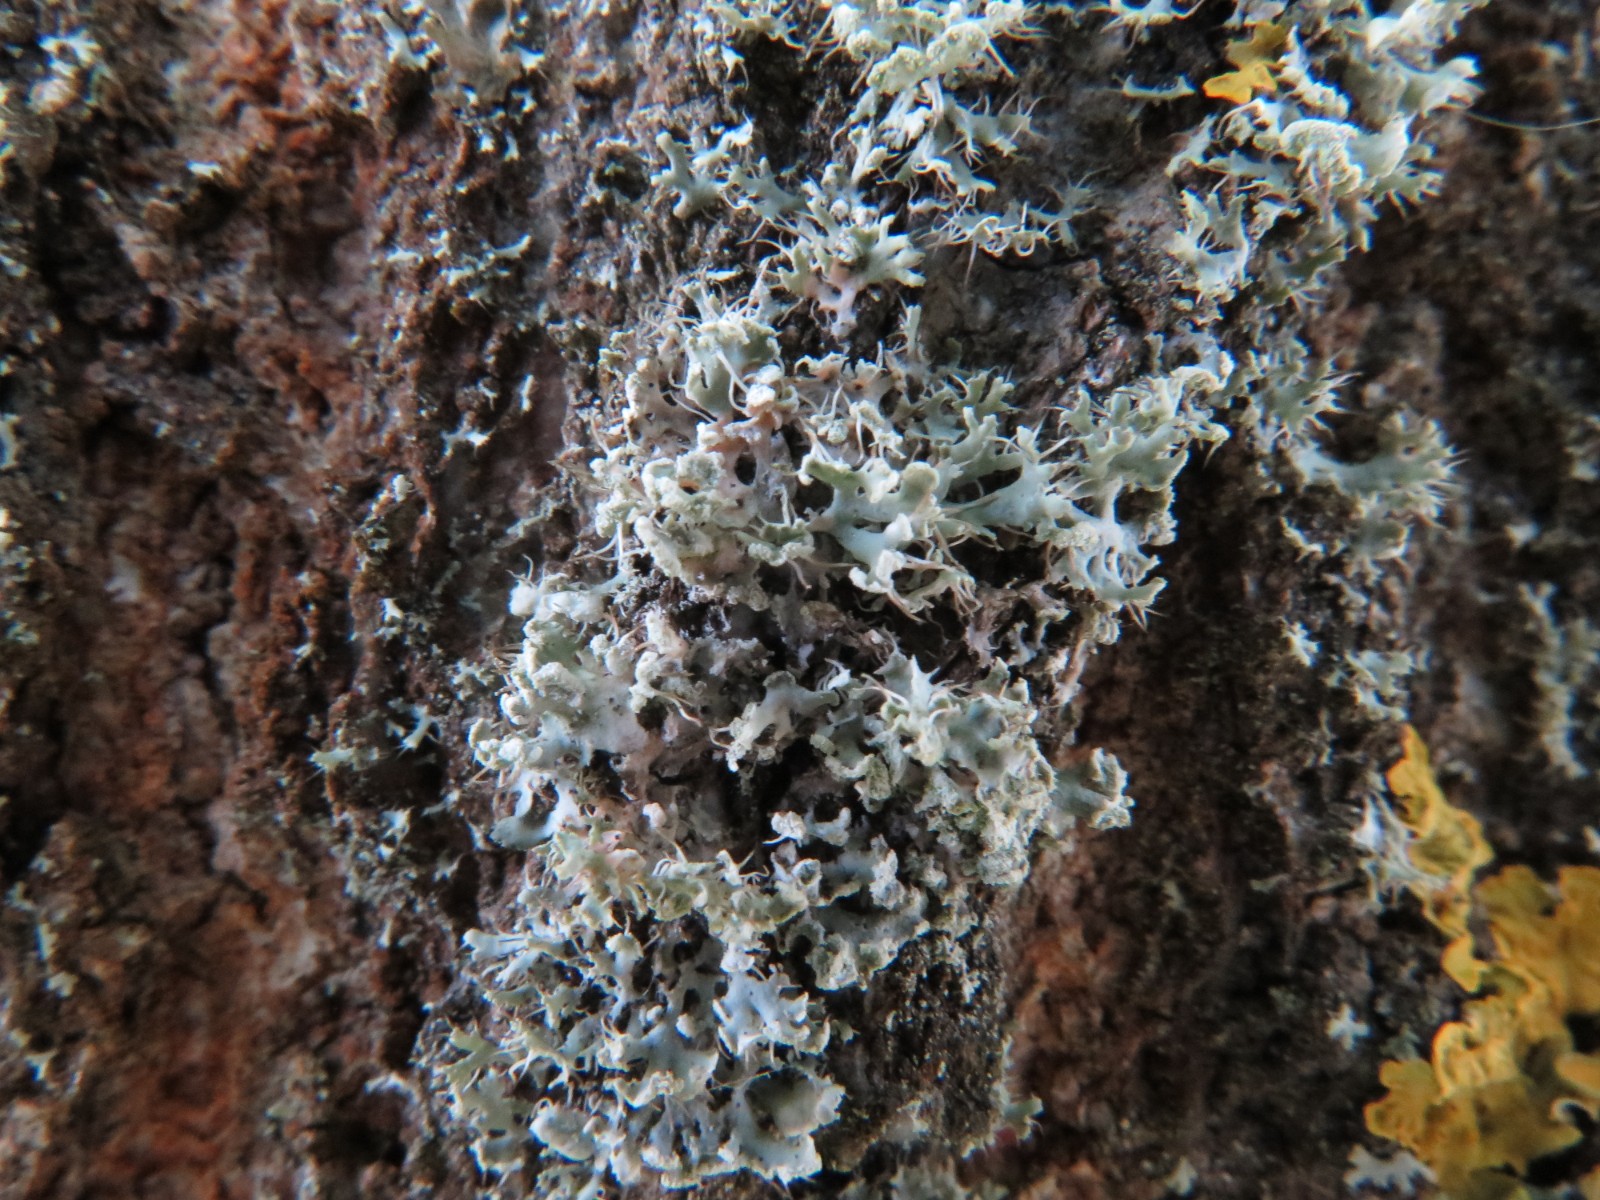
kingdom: Fungi
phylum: Ascomycota
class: Lecanoromycetes
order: Caliciales
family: Physciaceae
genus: Physcia
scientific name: Physcia tenella
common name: spæd rosetlav
